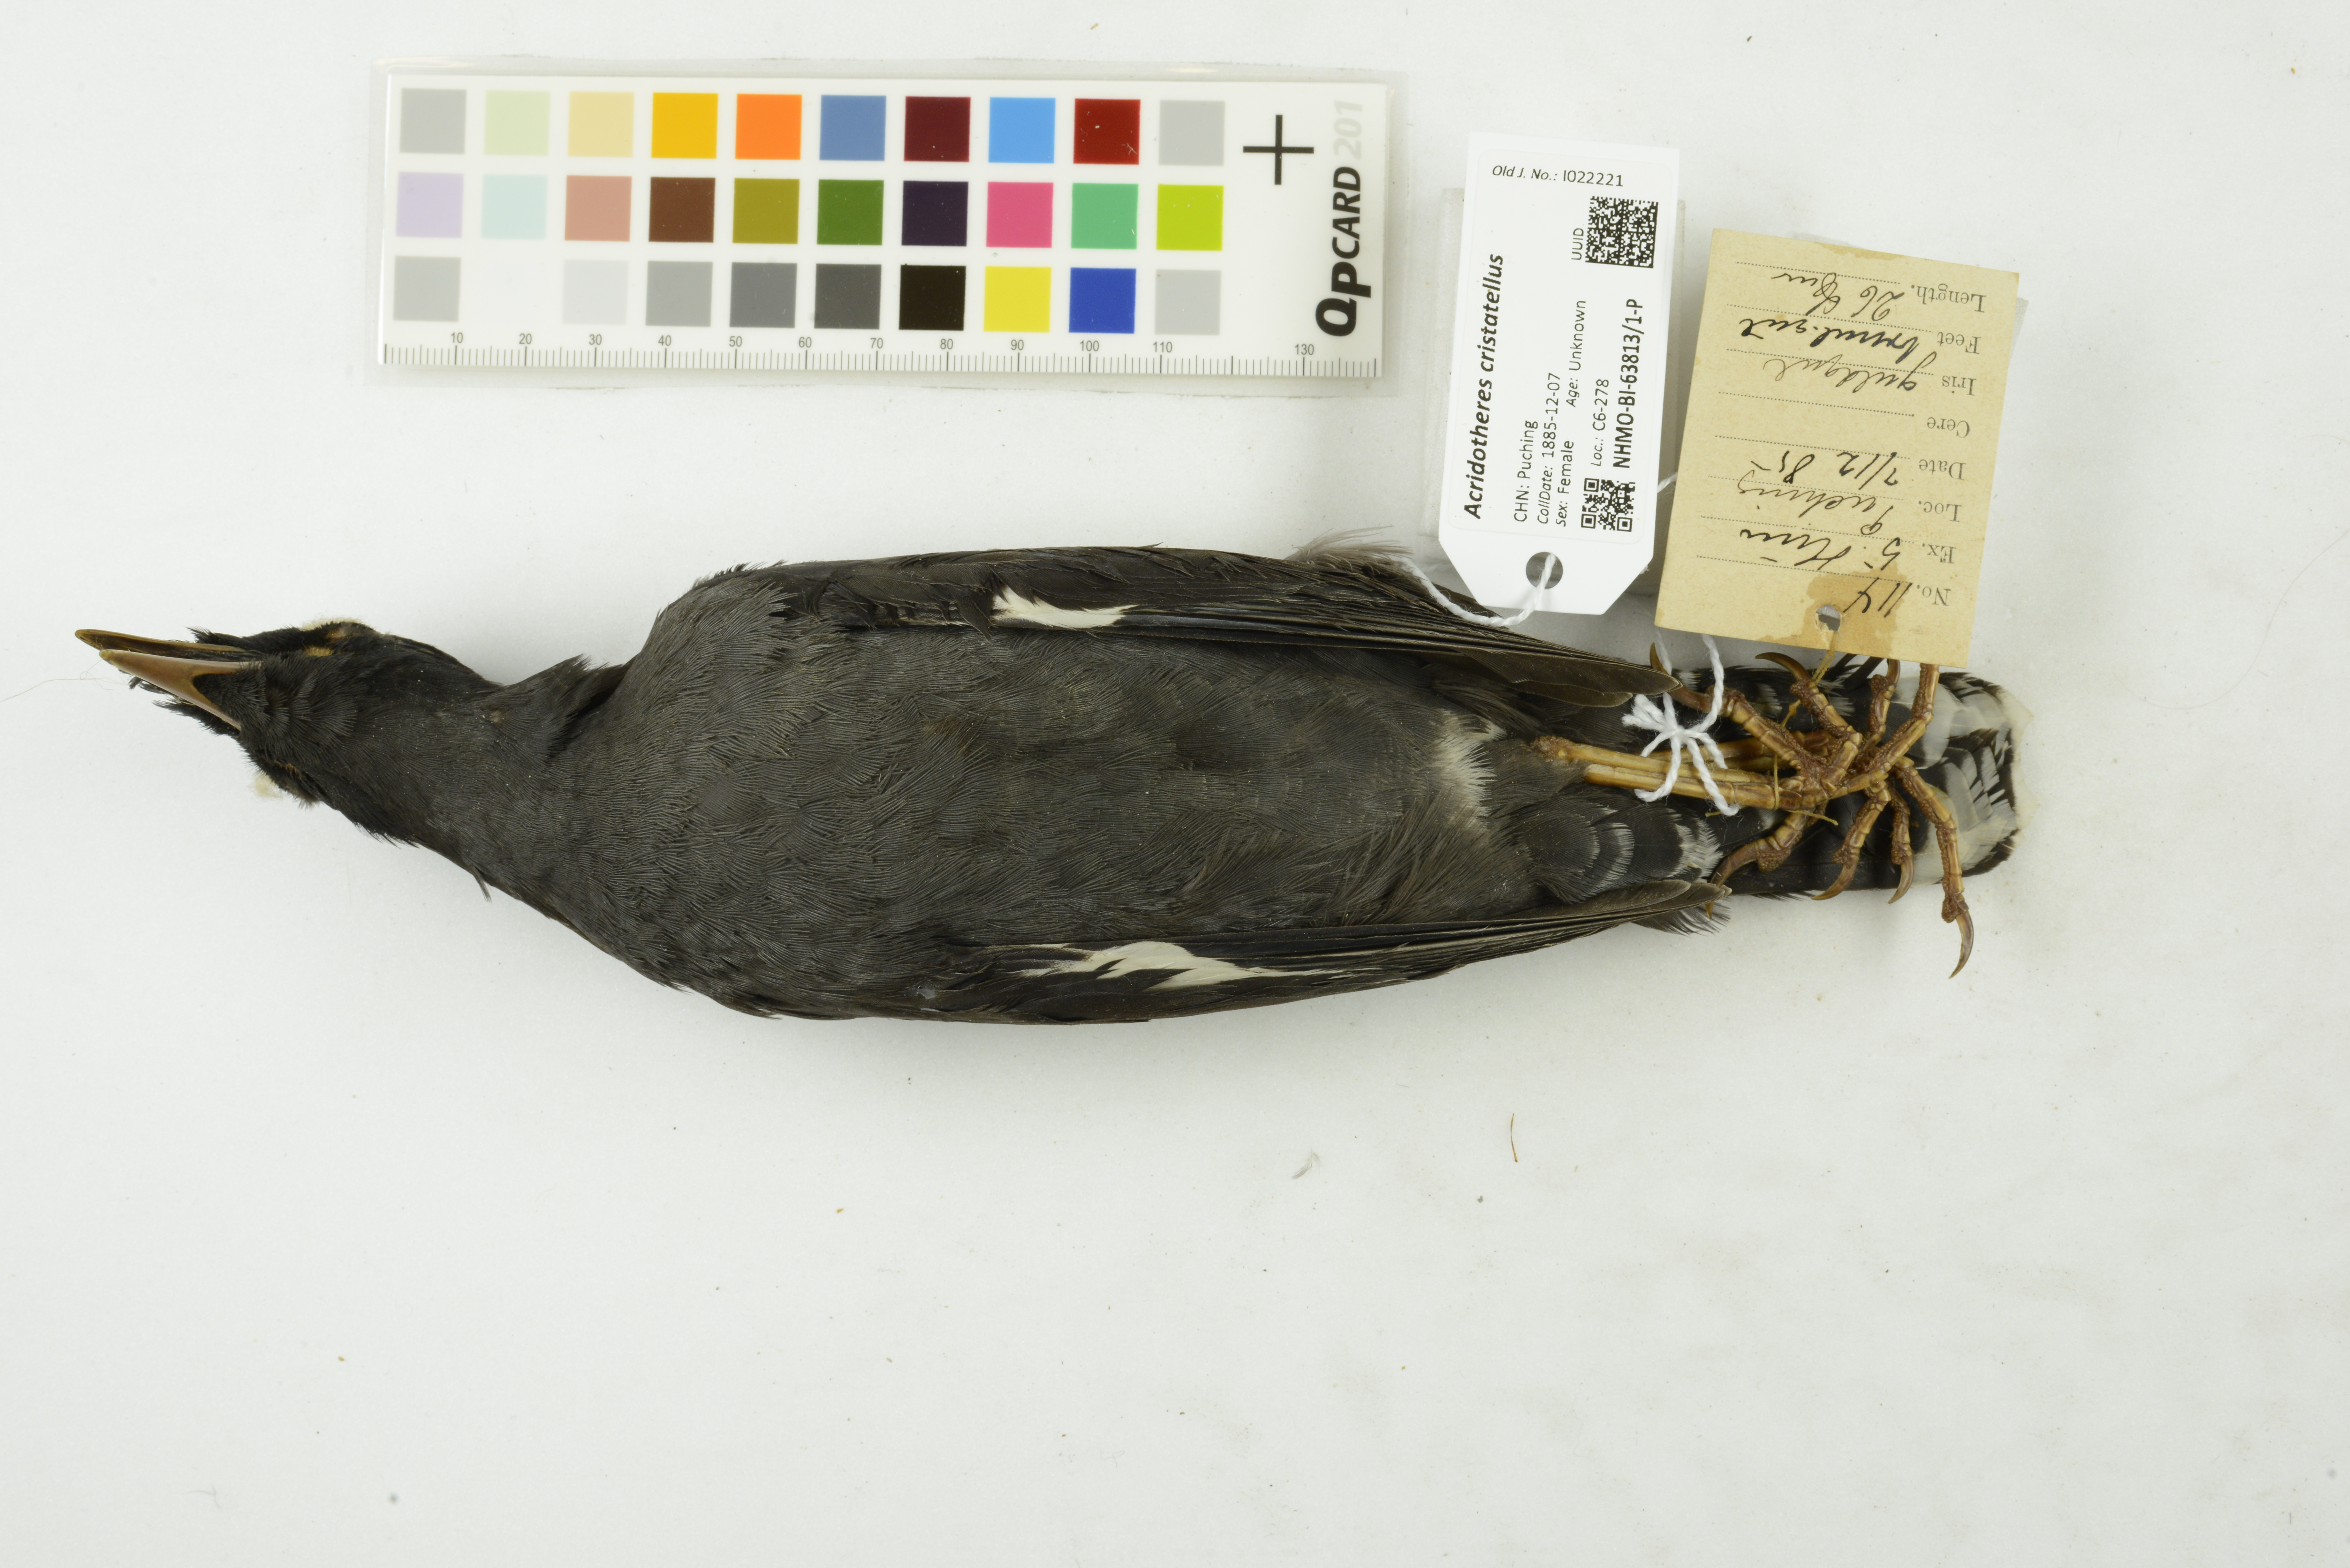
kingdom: Animalia
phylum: Chordata
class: Aves
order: Passeriformes
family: Sturnidae
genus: Acridotheres
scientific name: Acridotheres cristatellus
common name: Crested myna
